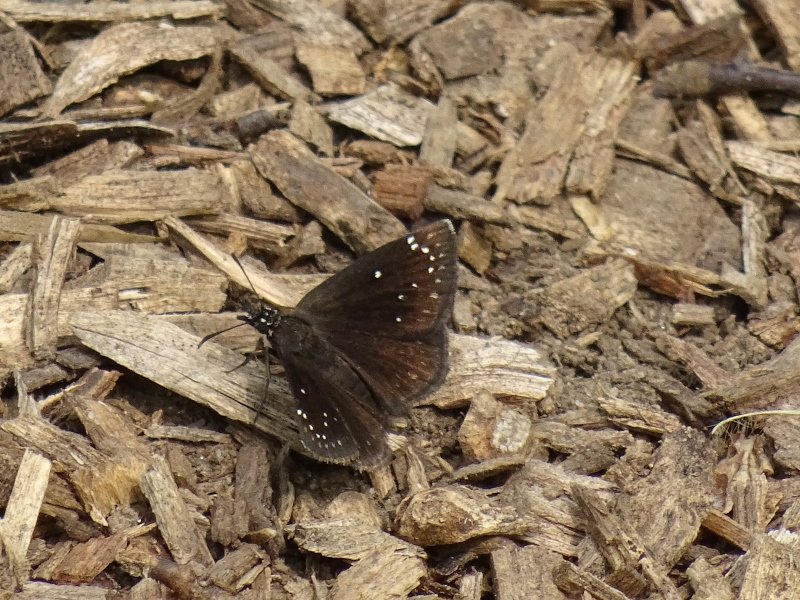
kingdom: Animalia
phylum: Arthropoda
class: Insecta
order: Lepidoptera
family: Hesperiidae
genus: Pholisora
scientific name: Pholisora catullus
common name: Common Sootywing
